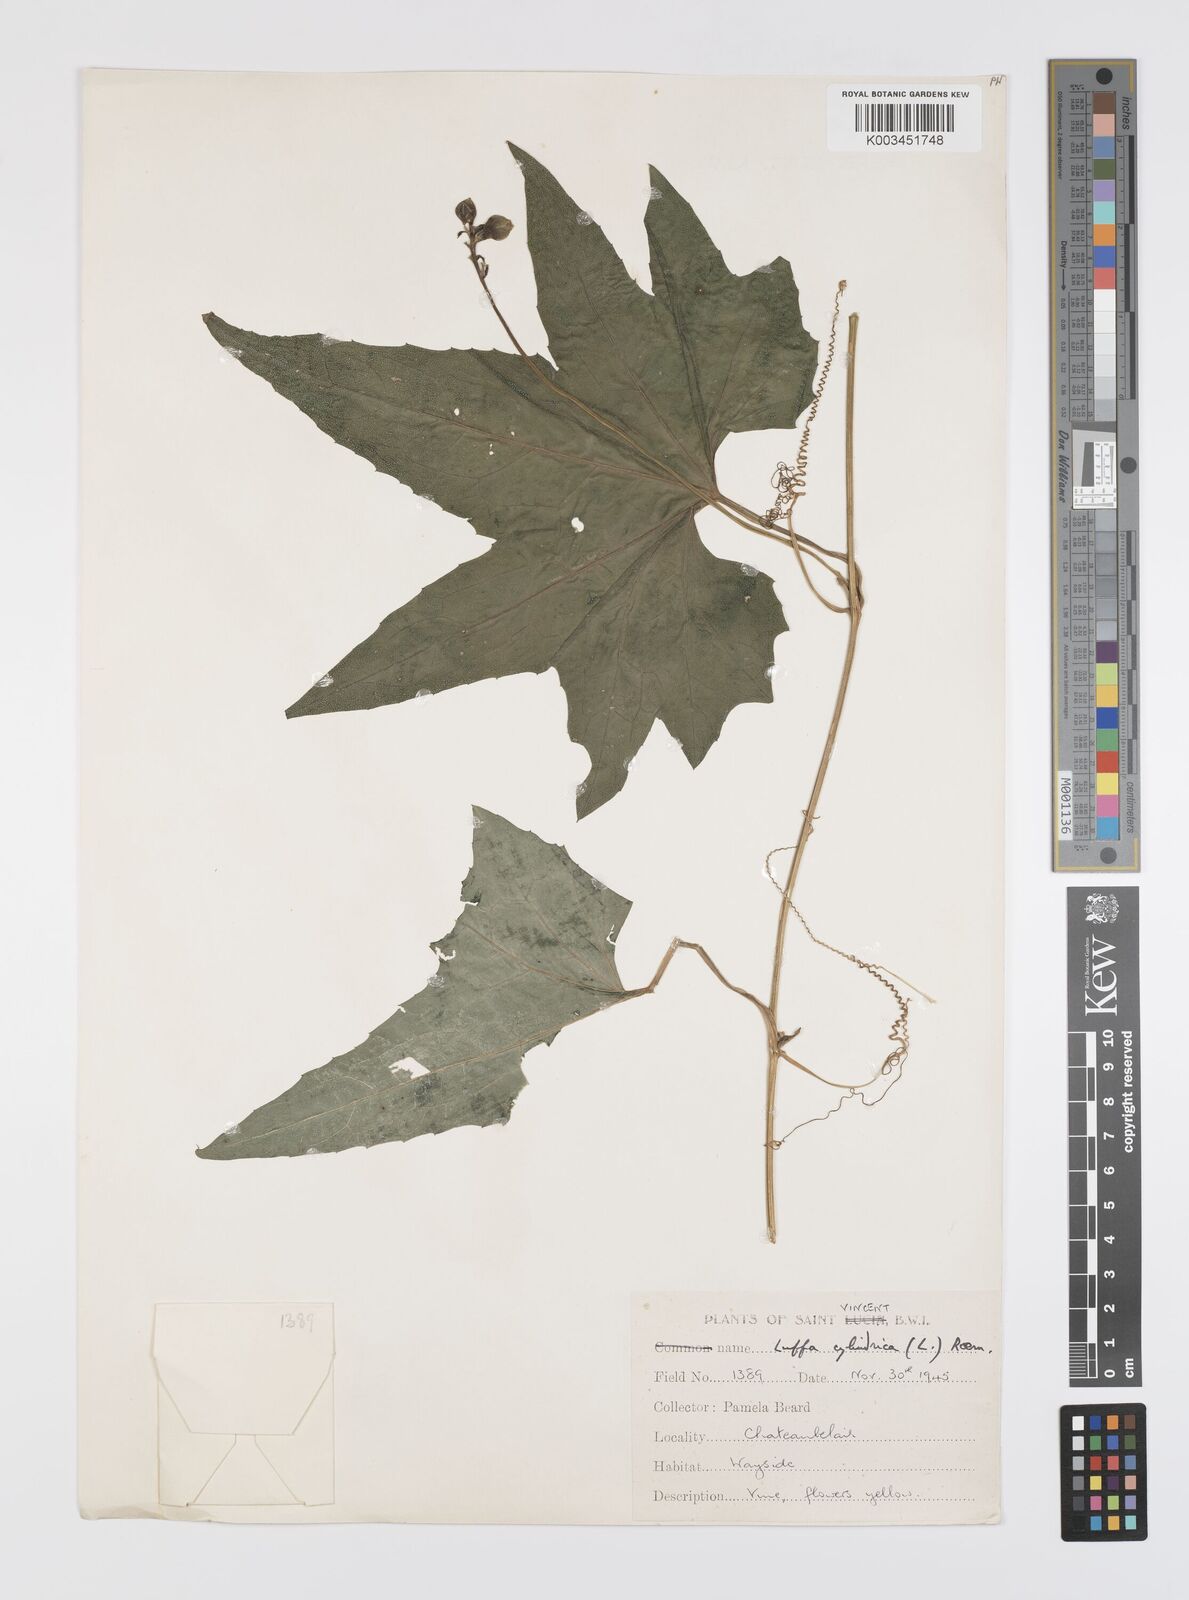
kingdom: Plantae
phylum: Tracheophyta
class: Magnoliopsida
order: Cucurbitales
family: Cucurbitaceae
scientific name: Cucurbitaceae
